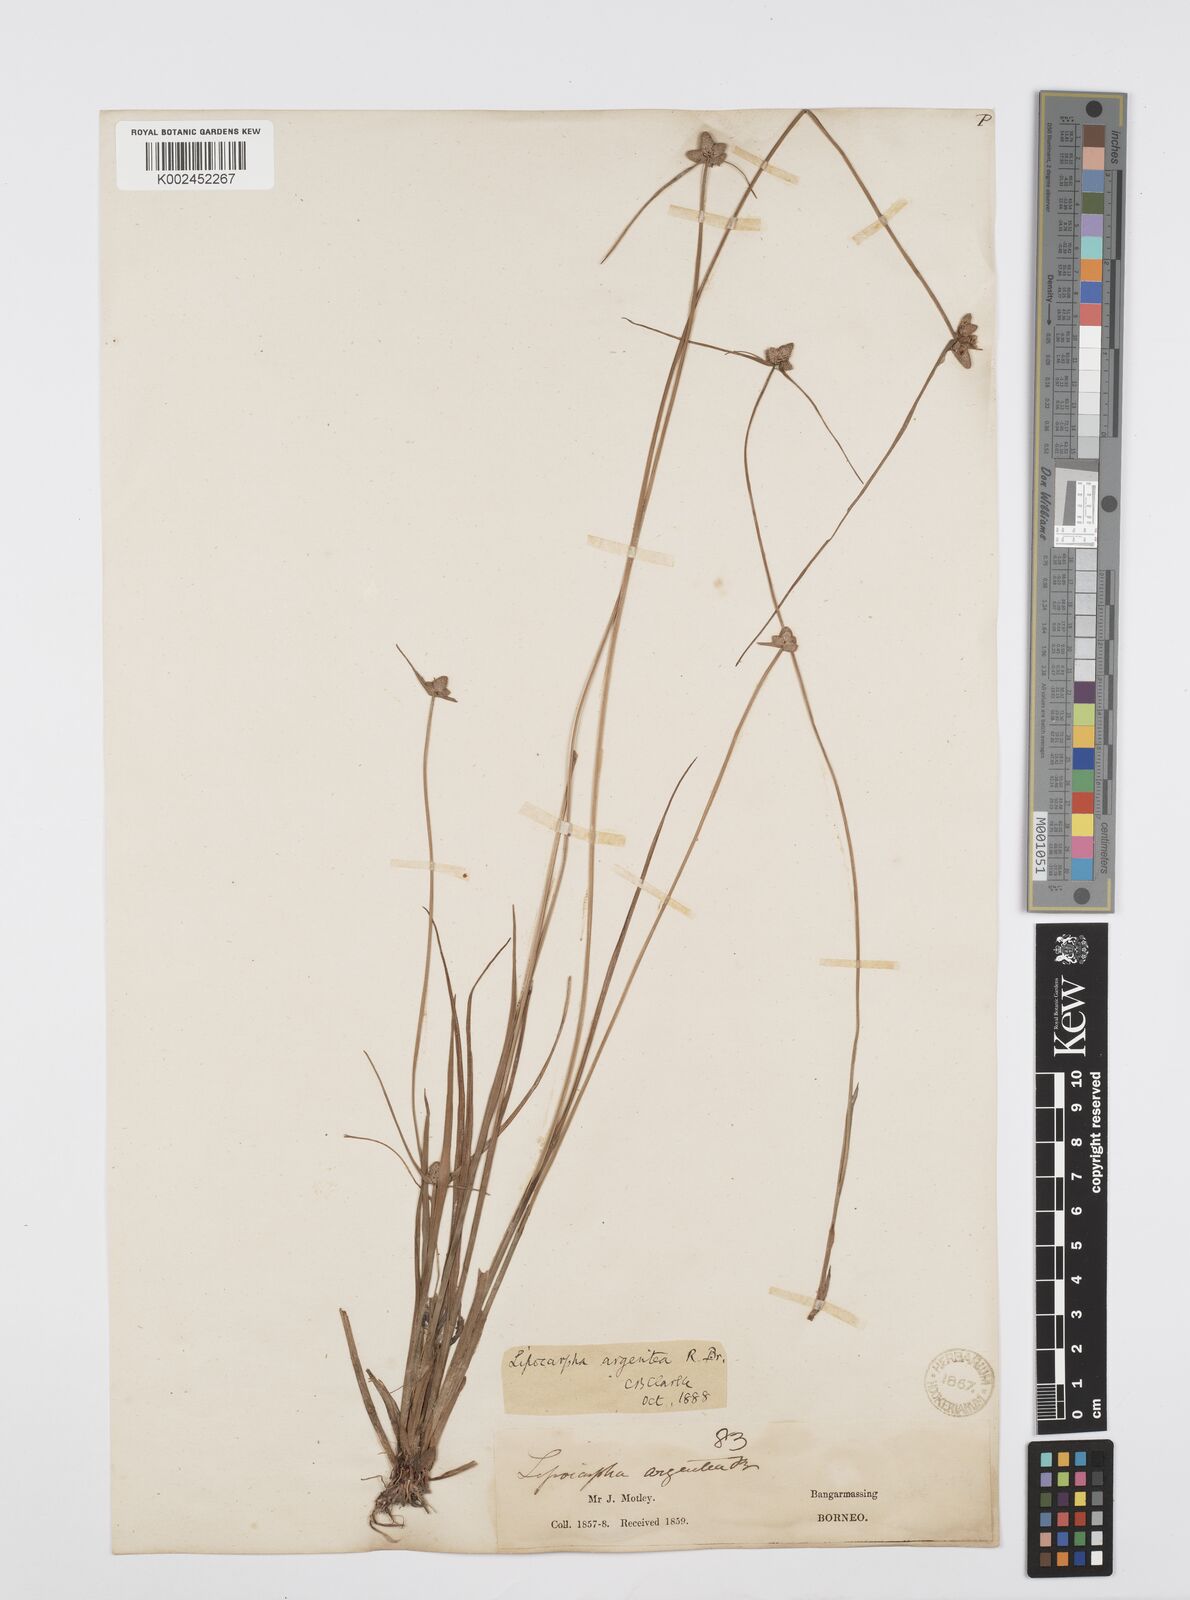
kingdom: Plantae
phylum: Tracheophyta
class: Liliopsida
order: Poales
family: Cyperaceae
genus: Cyperus
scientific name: Cyperus
